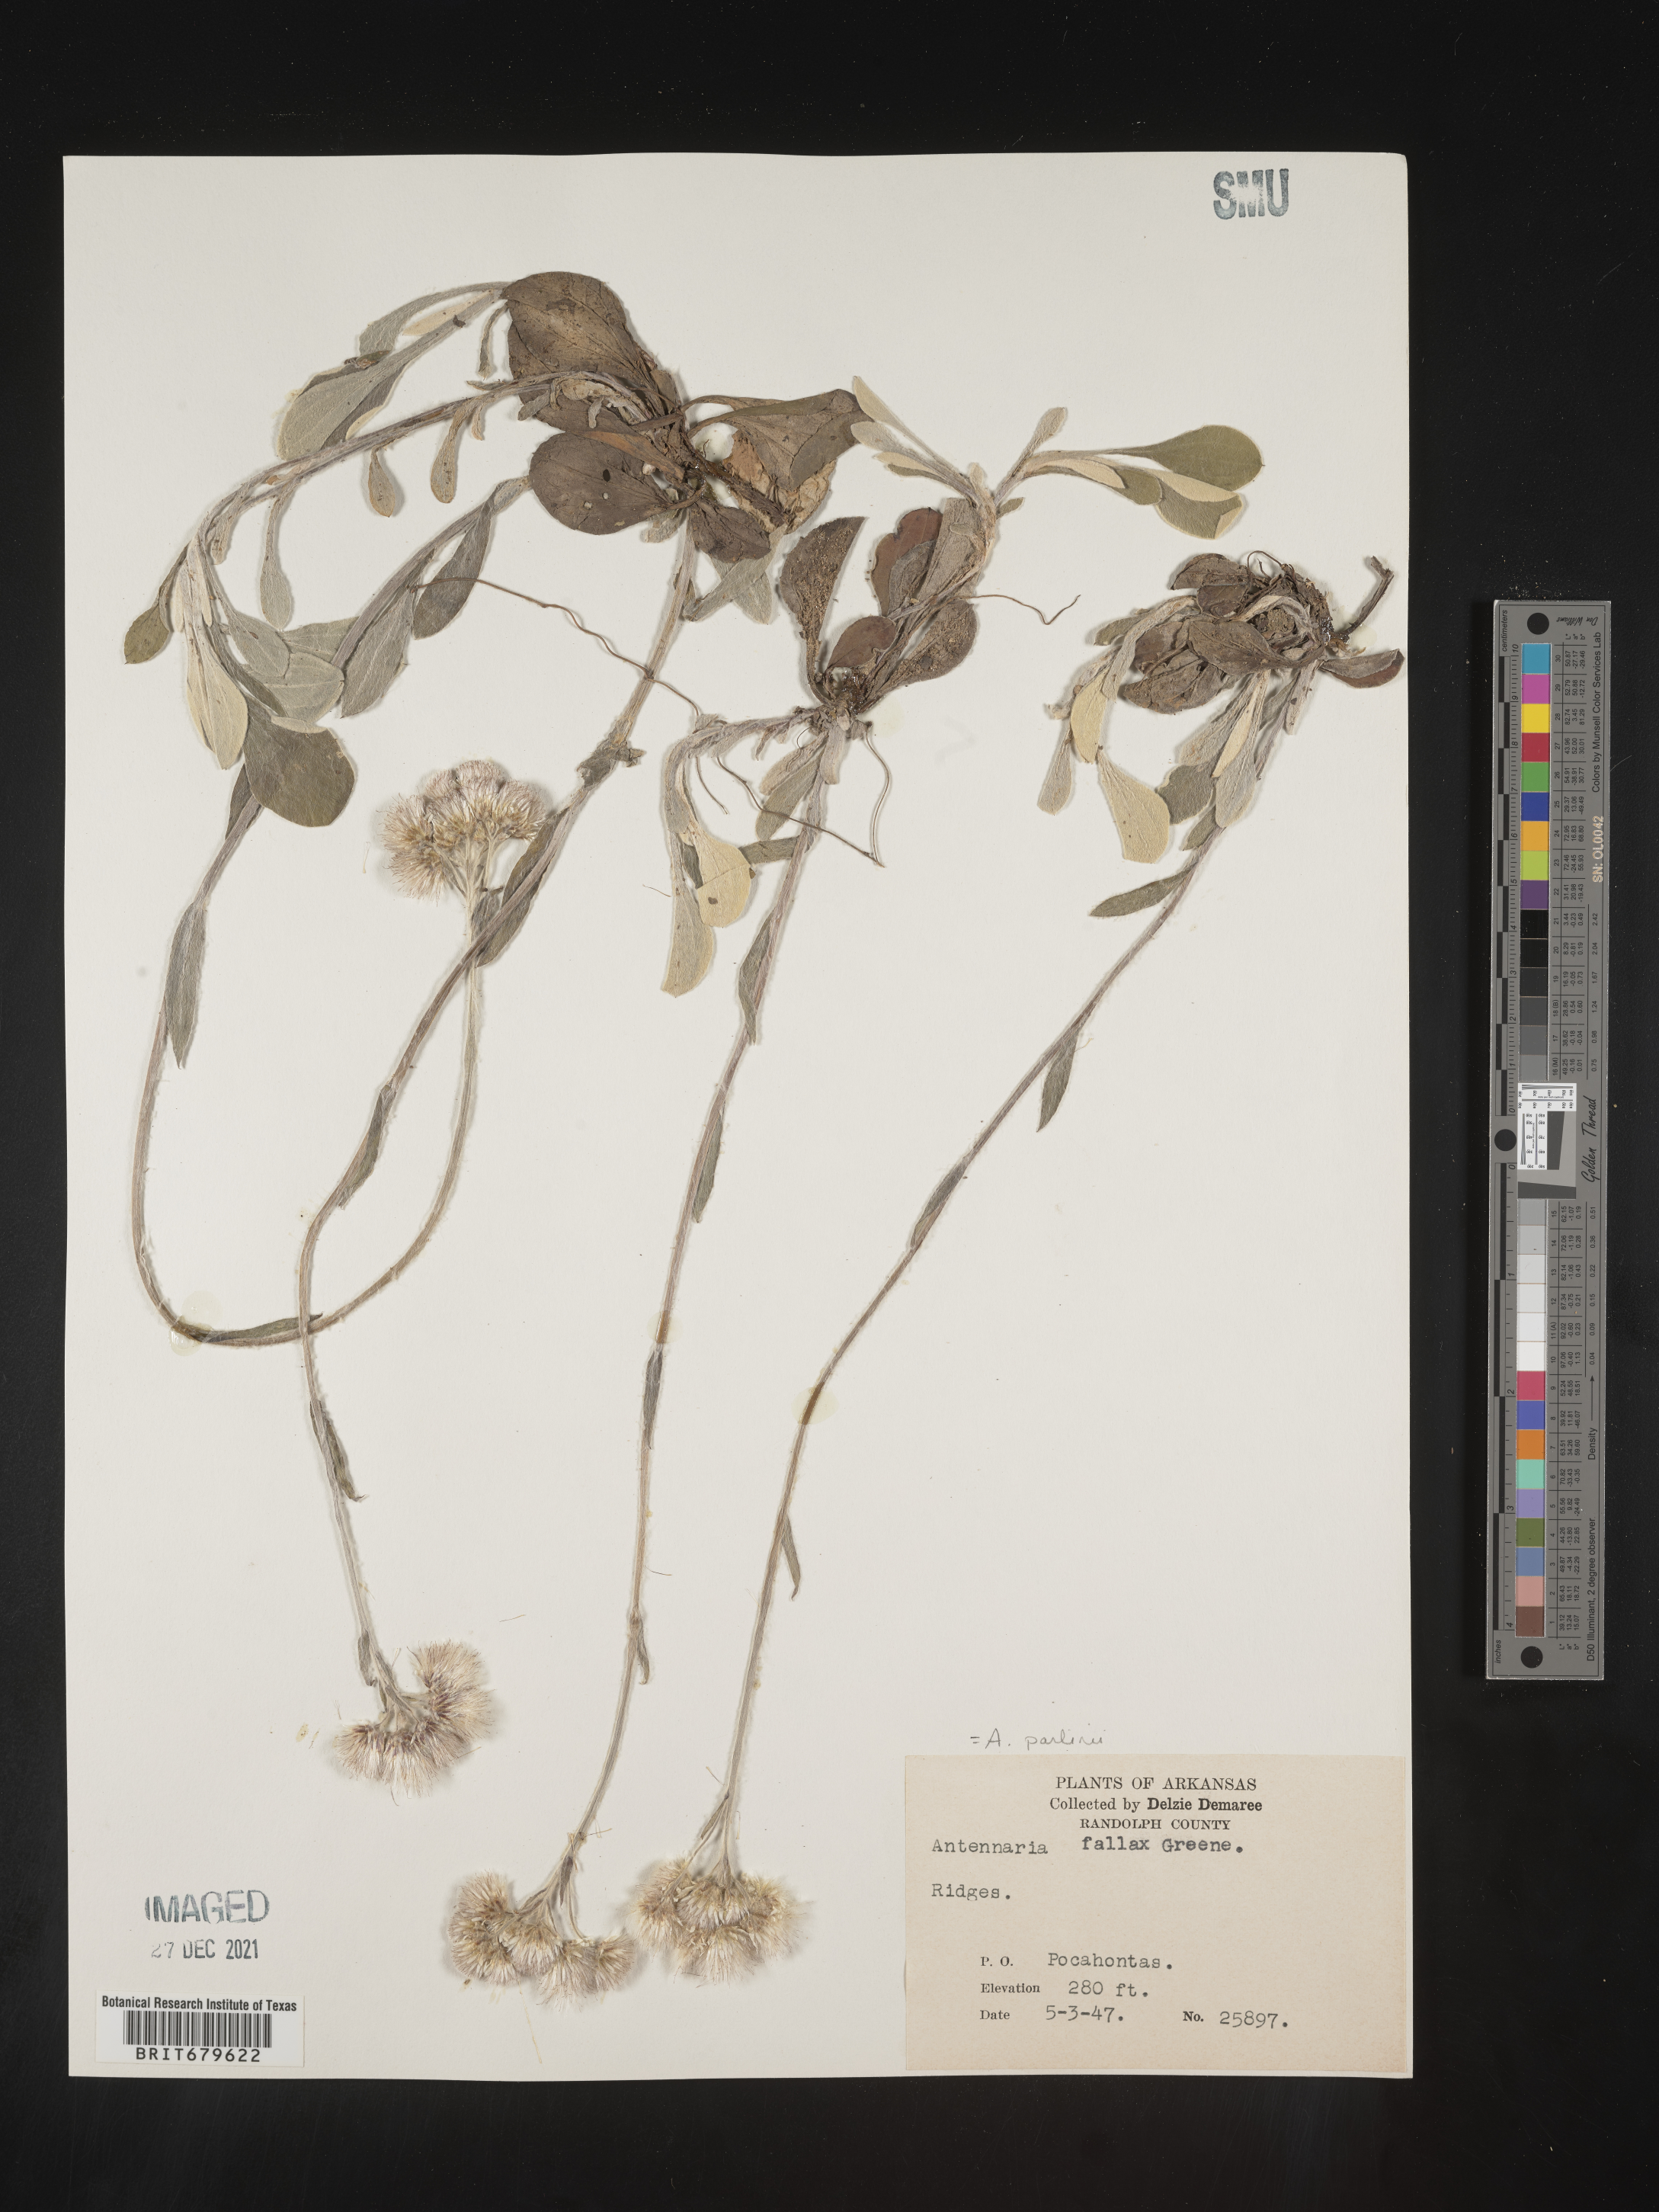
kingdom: Plantae
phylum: Tracheophyta
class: Magnoliopsida
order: Asterales
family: Asteraceae
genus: Antennaria
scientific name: Antennaria parlinii
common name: Parlin's pussytoes
